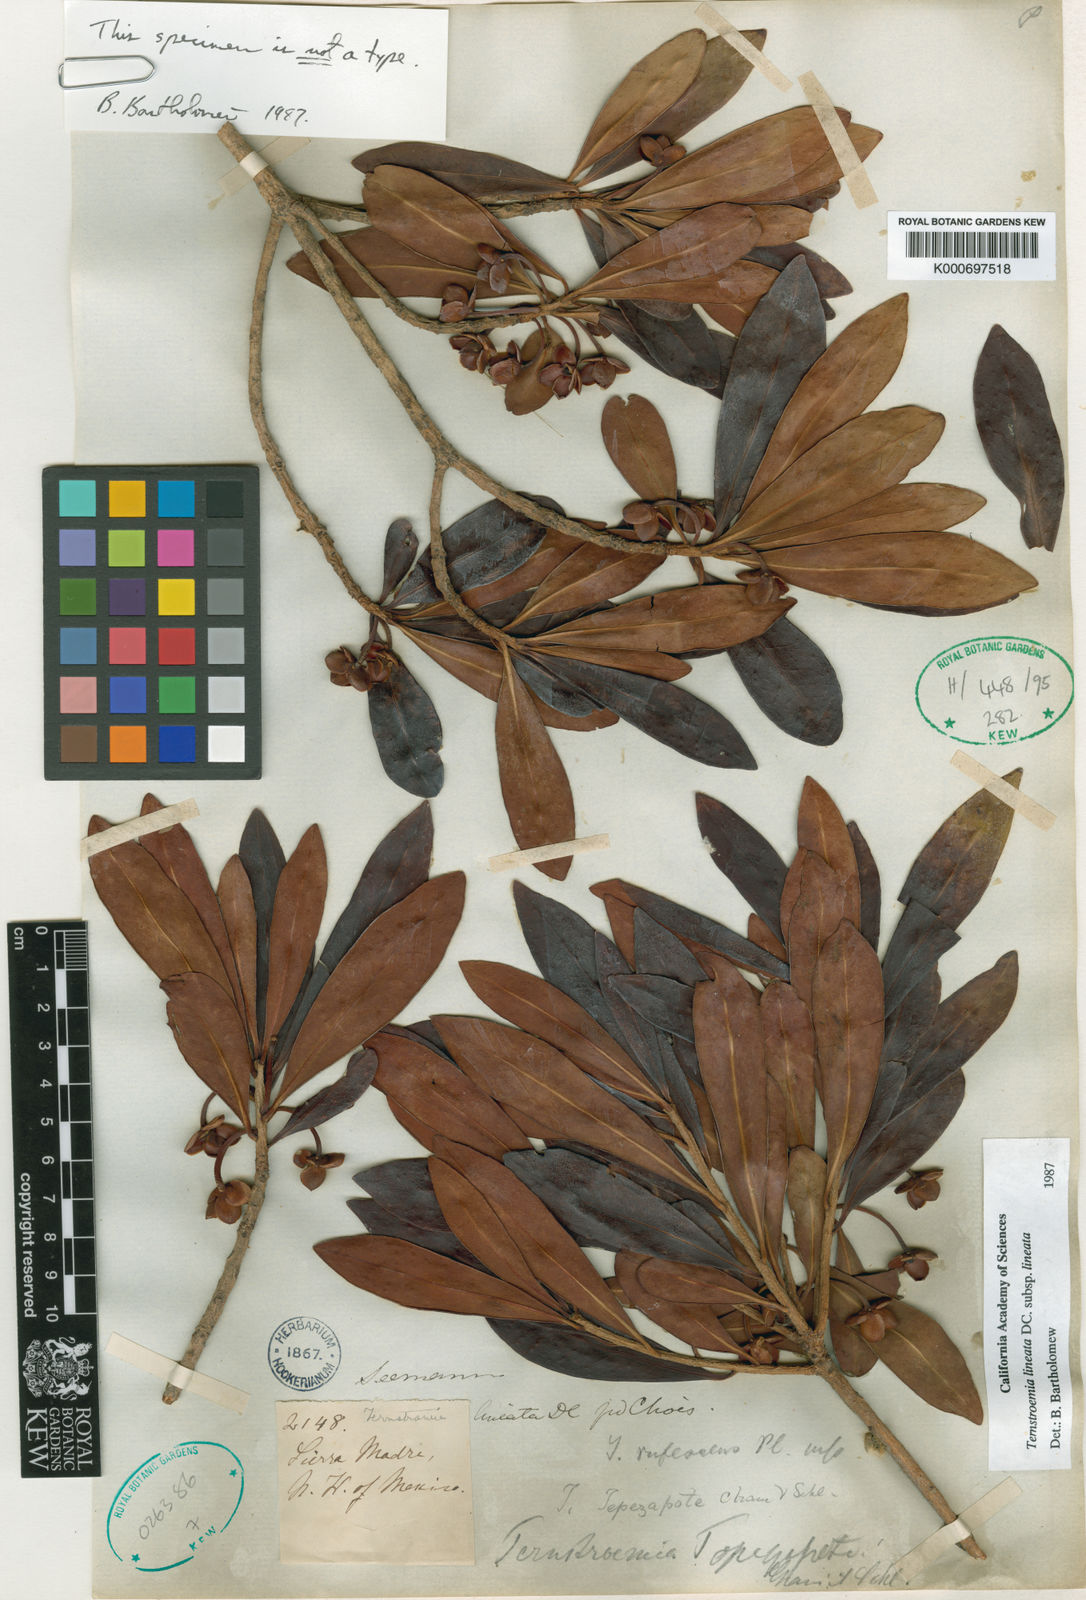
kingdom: Plantae
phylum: Tracheophyta
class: Magnoliopsida
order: Ericales
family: Pentaphylacaceae
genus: Ternstroemia
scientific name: Ternstroemia lineata
